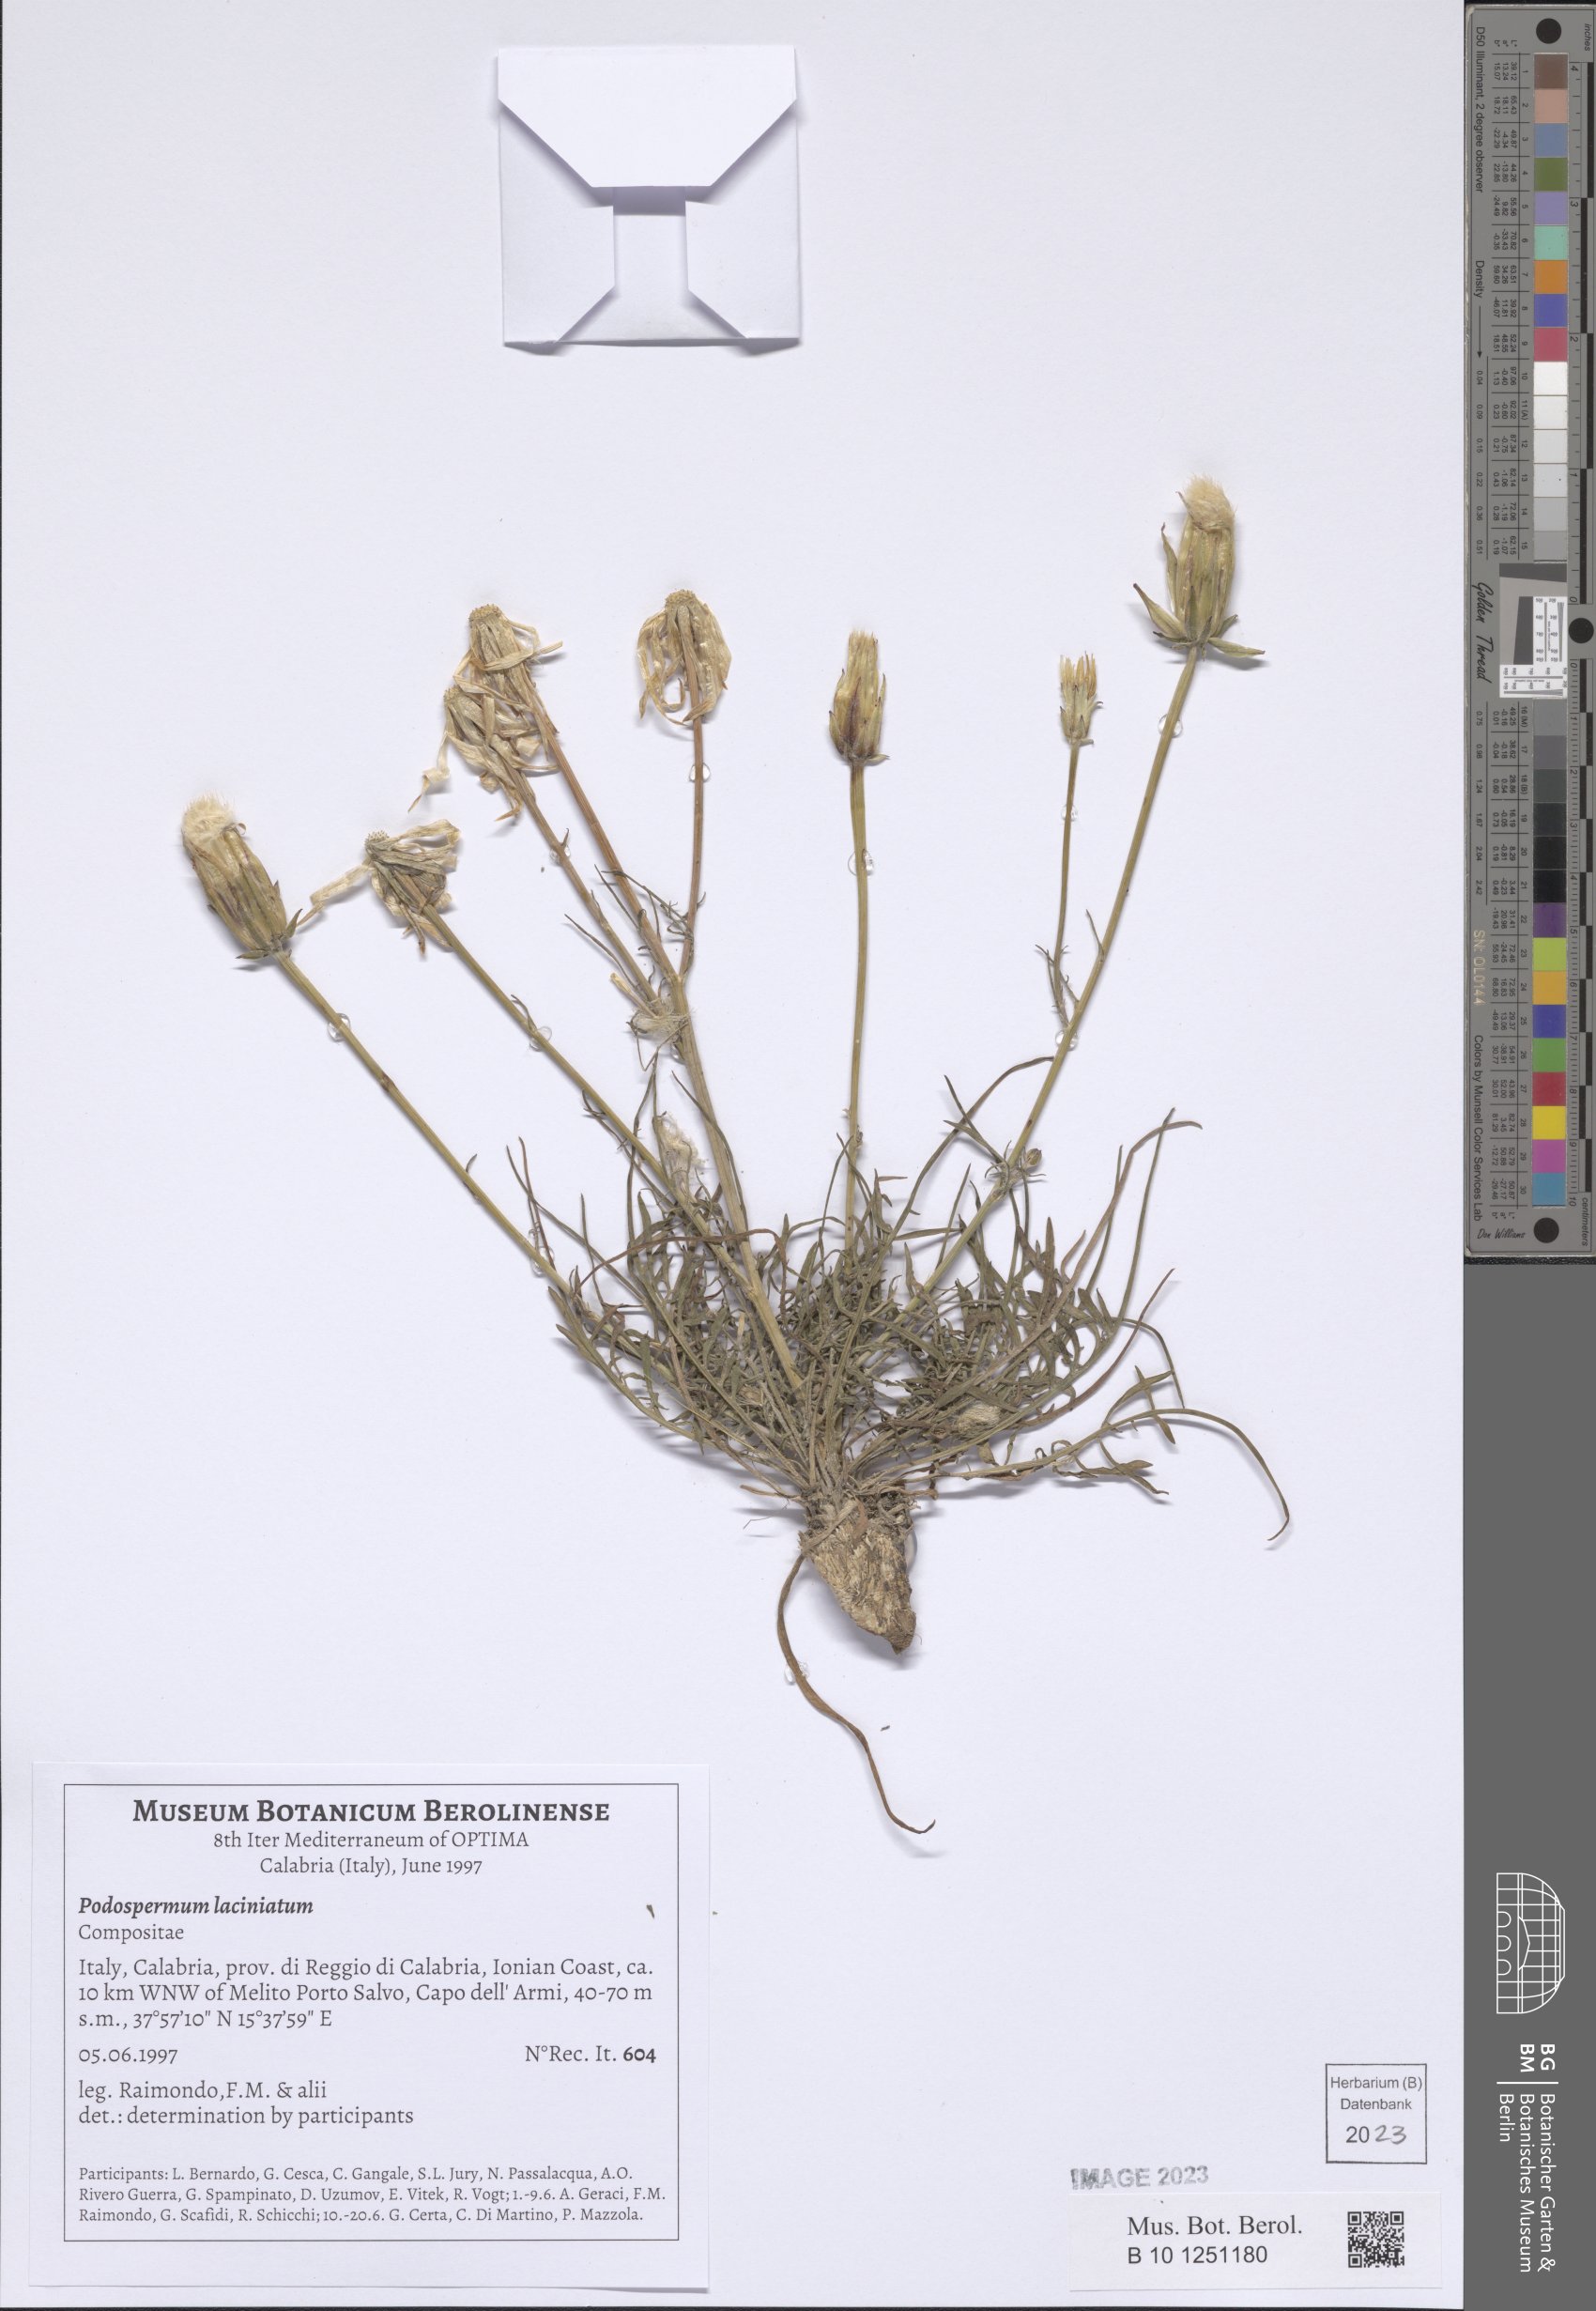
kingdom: Plantae
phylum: Tracheophyta
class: Magnoliopsida
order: Asterales
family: Asteraceae
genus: Scorzonera
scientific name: Scorzonera laciniata
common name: Cutleaf vipergrass
